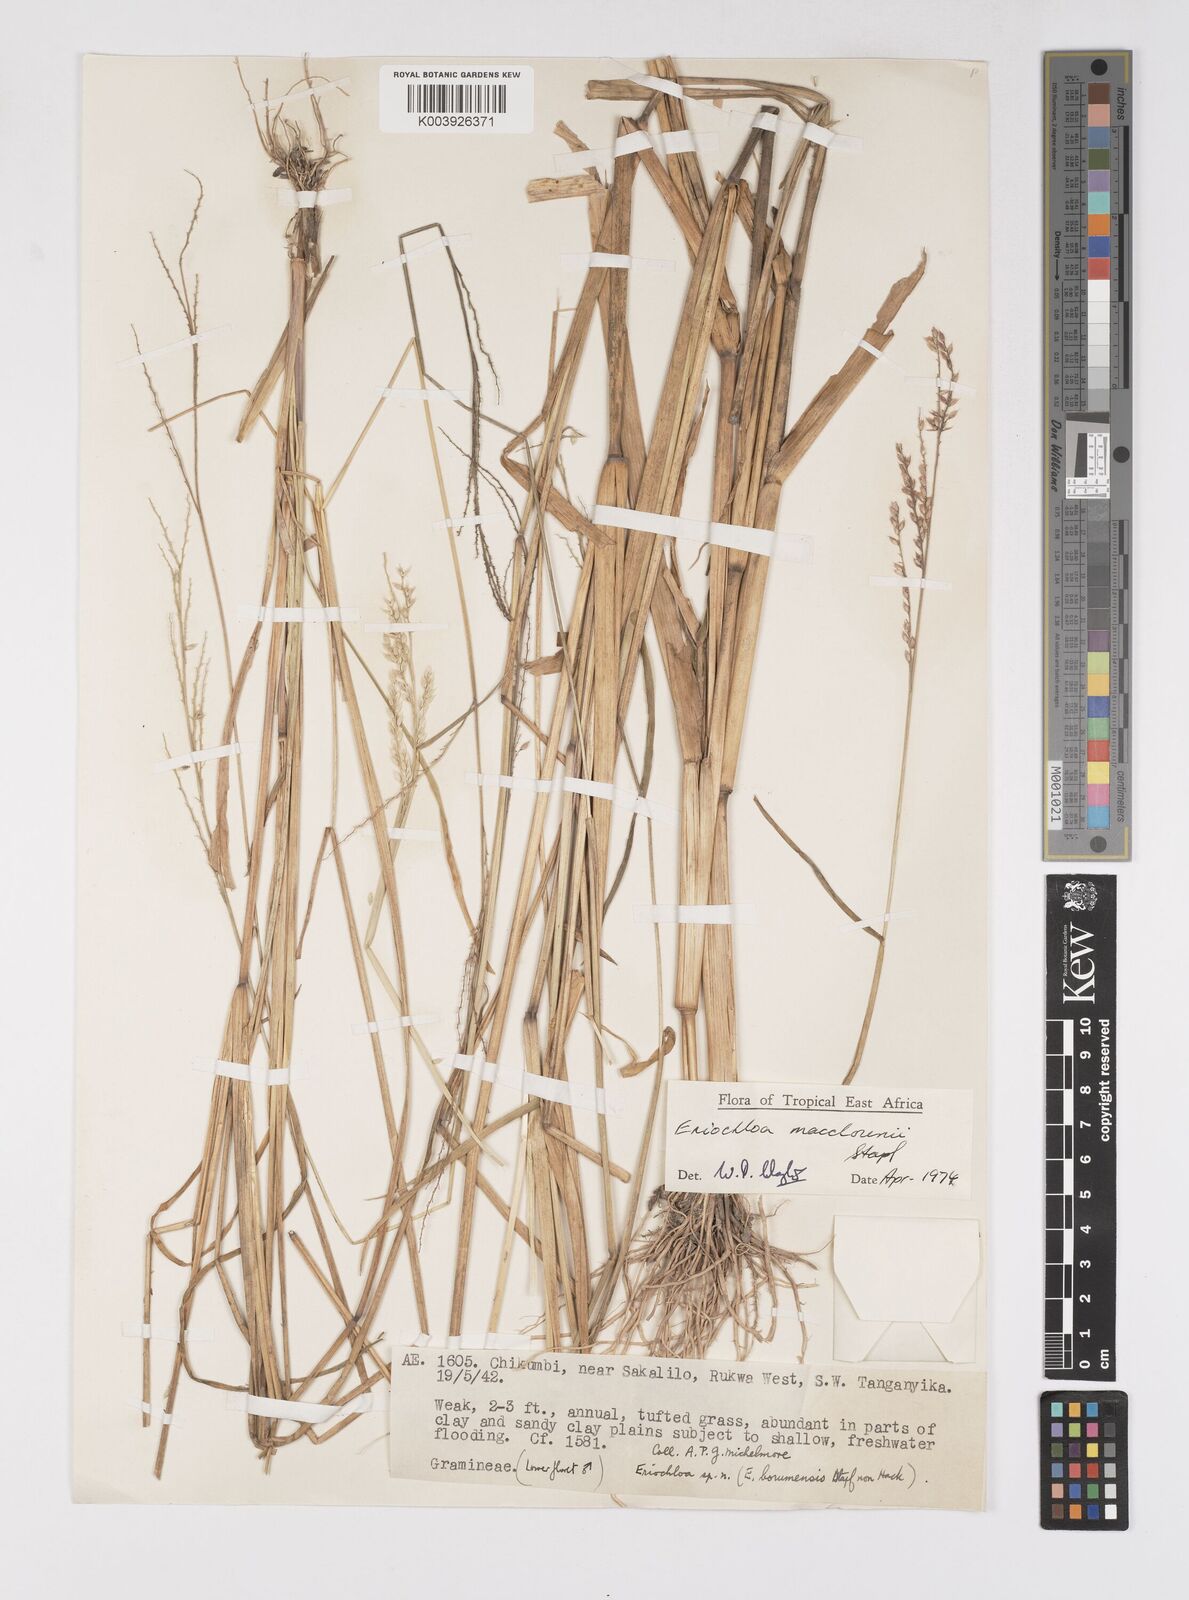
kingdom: Plantae
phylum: Tracheophyta
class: Liliopsida
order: Poales
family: Poaceae
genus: Eriochloa
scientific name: Eriochloa macclounii
